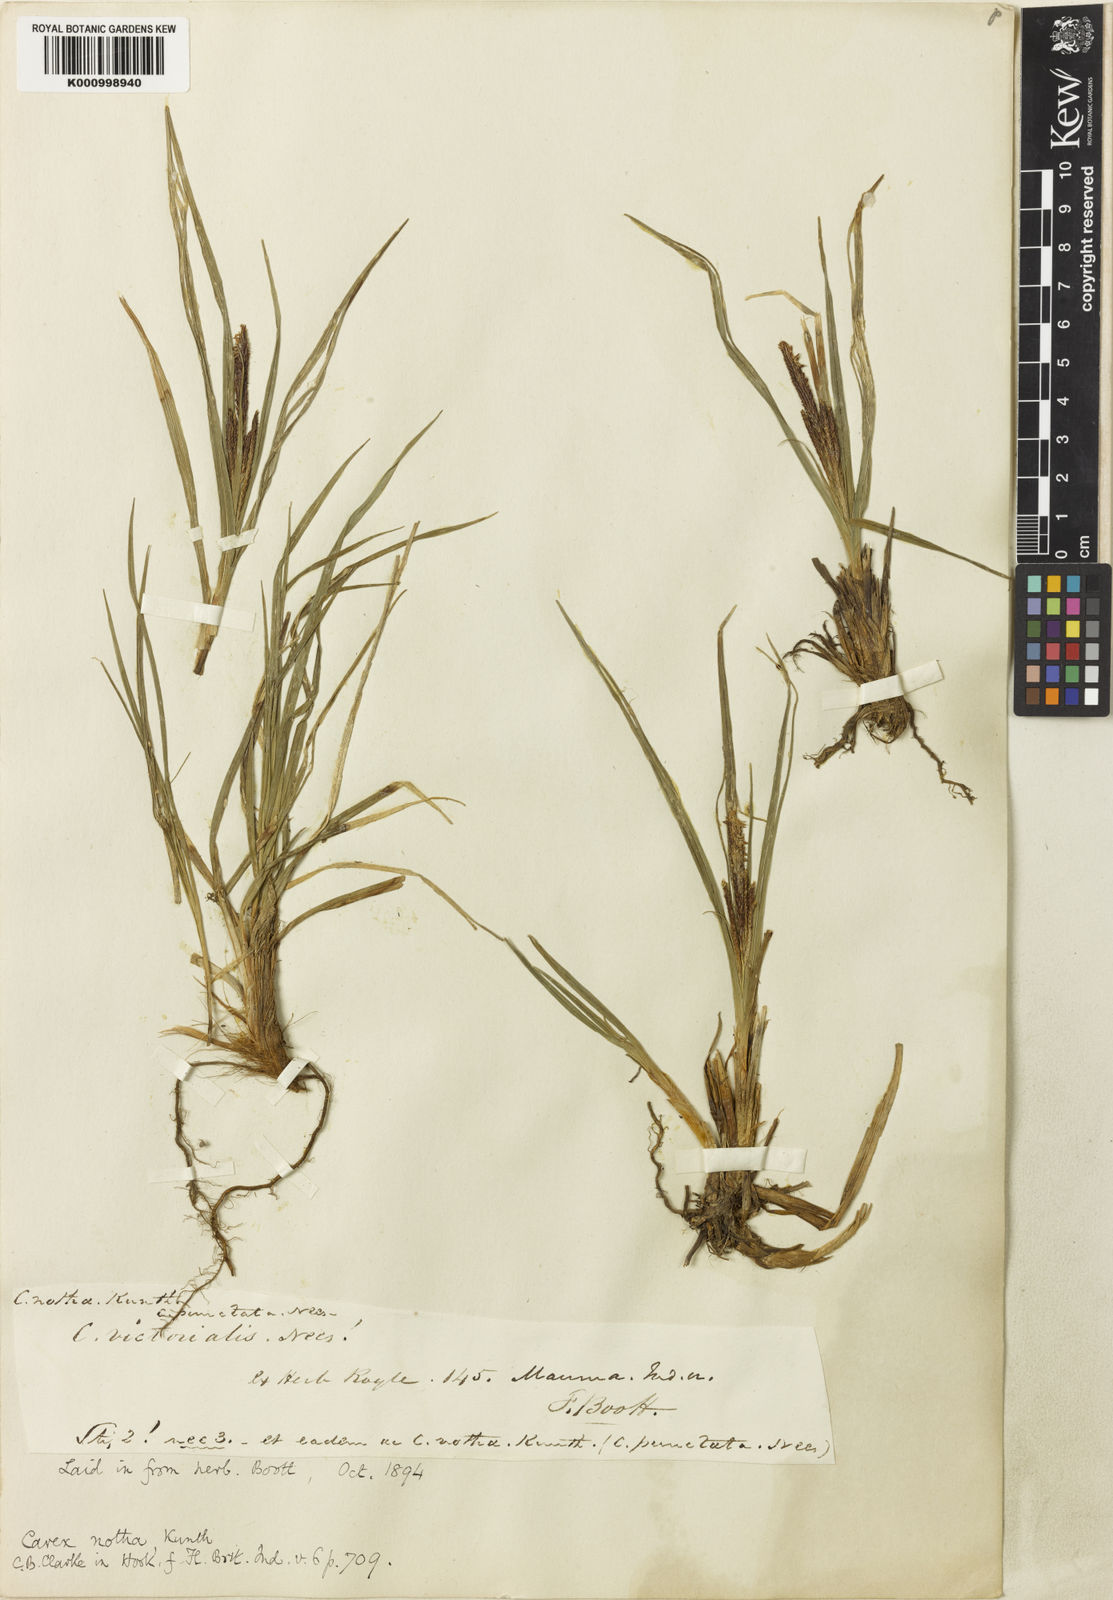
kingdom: Plantae
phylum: Tracheophyta
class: Liliopsida
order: Poales
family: Cyperaceae
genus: Carex
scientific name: Carex notha
